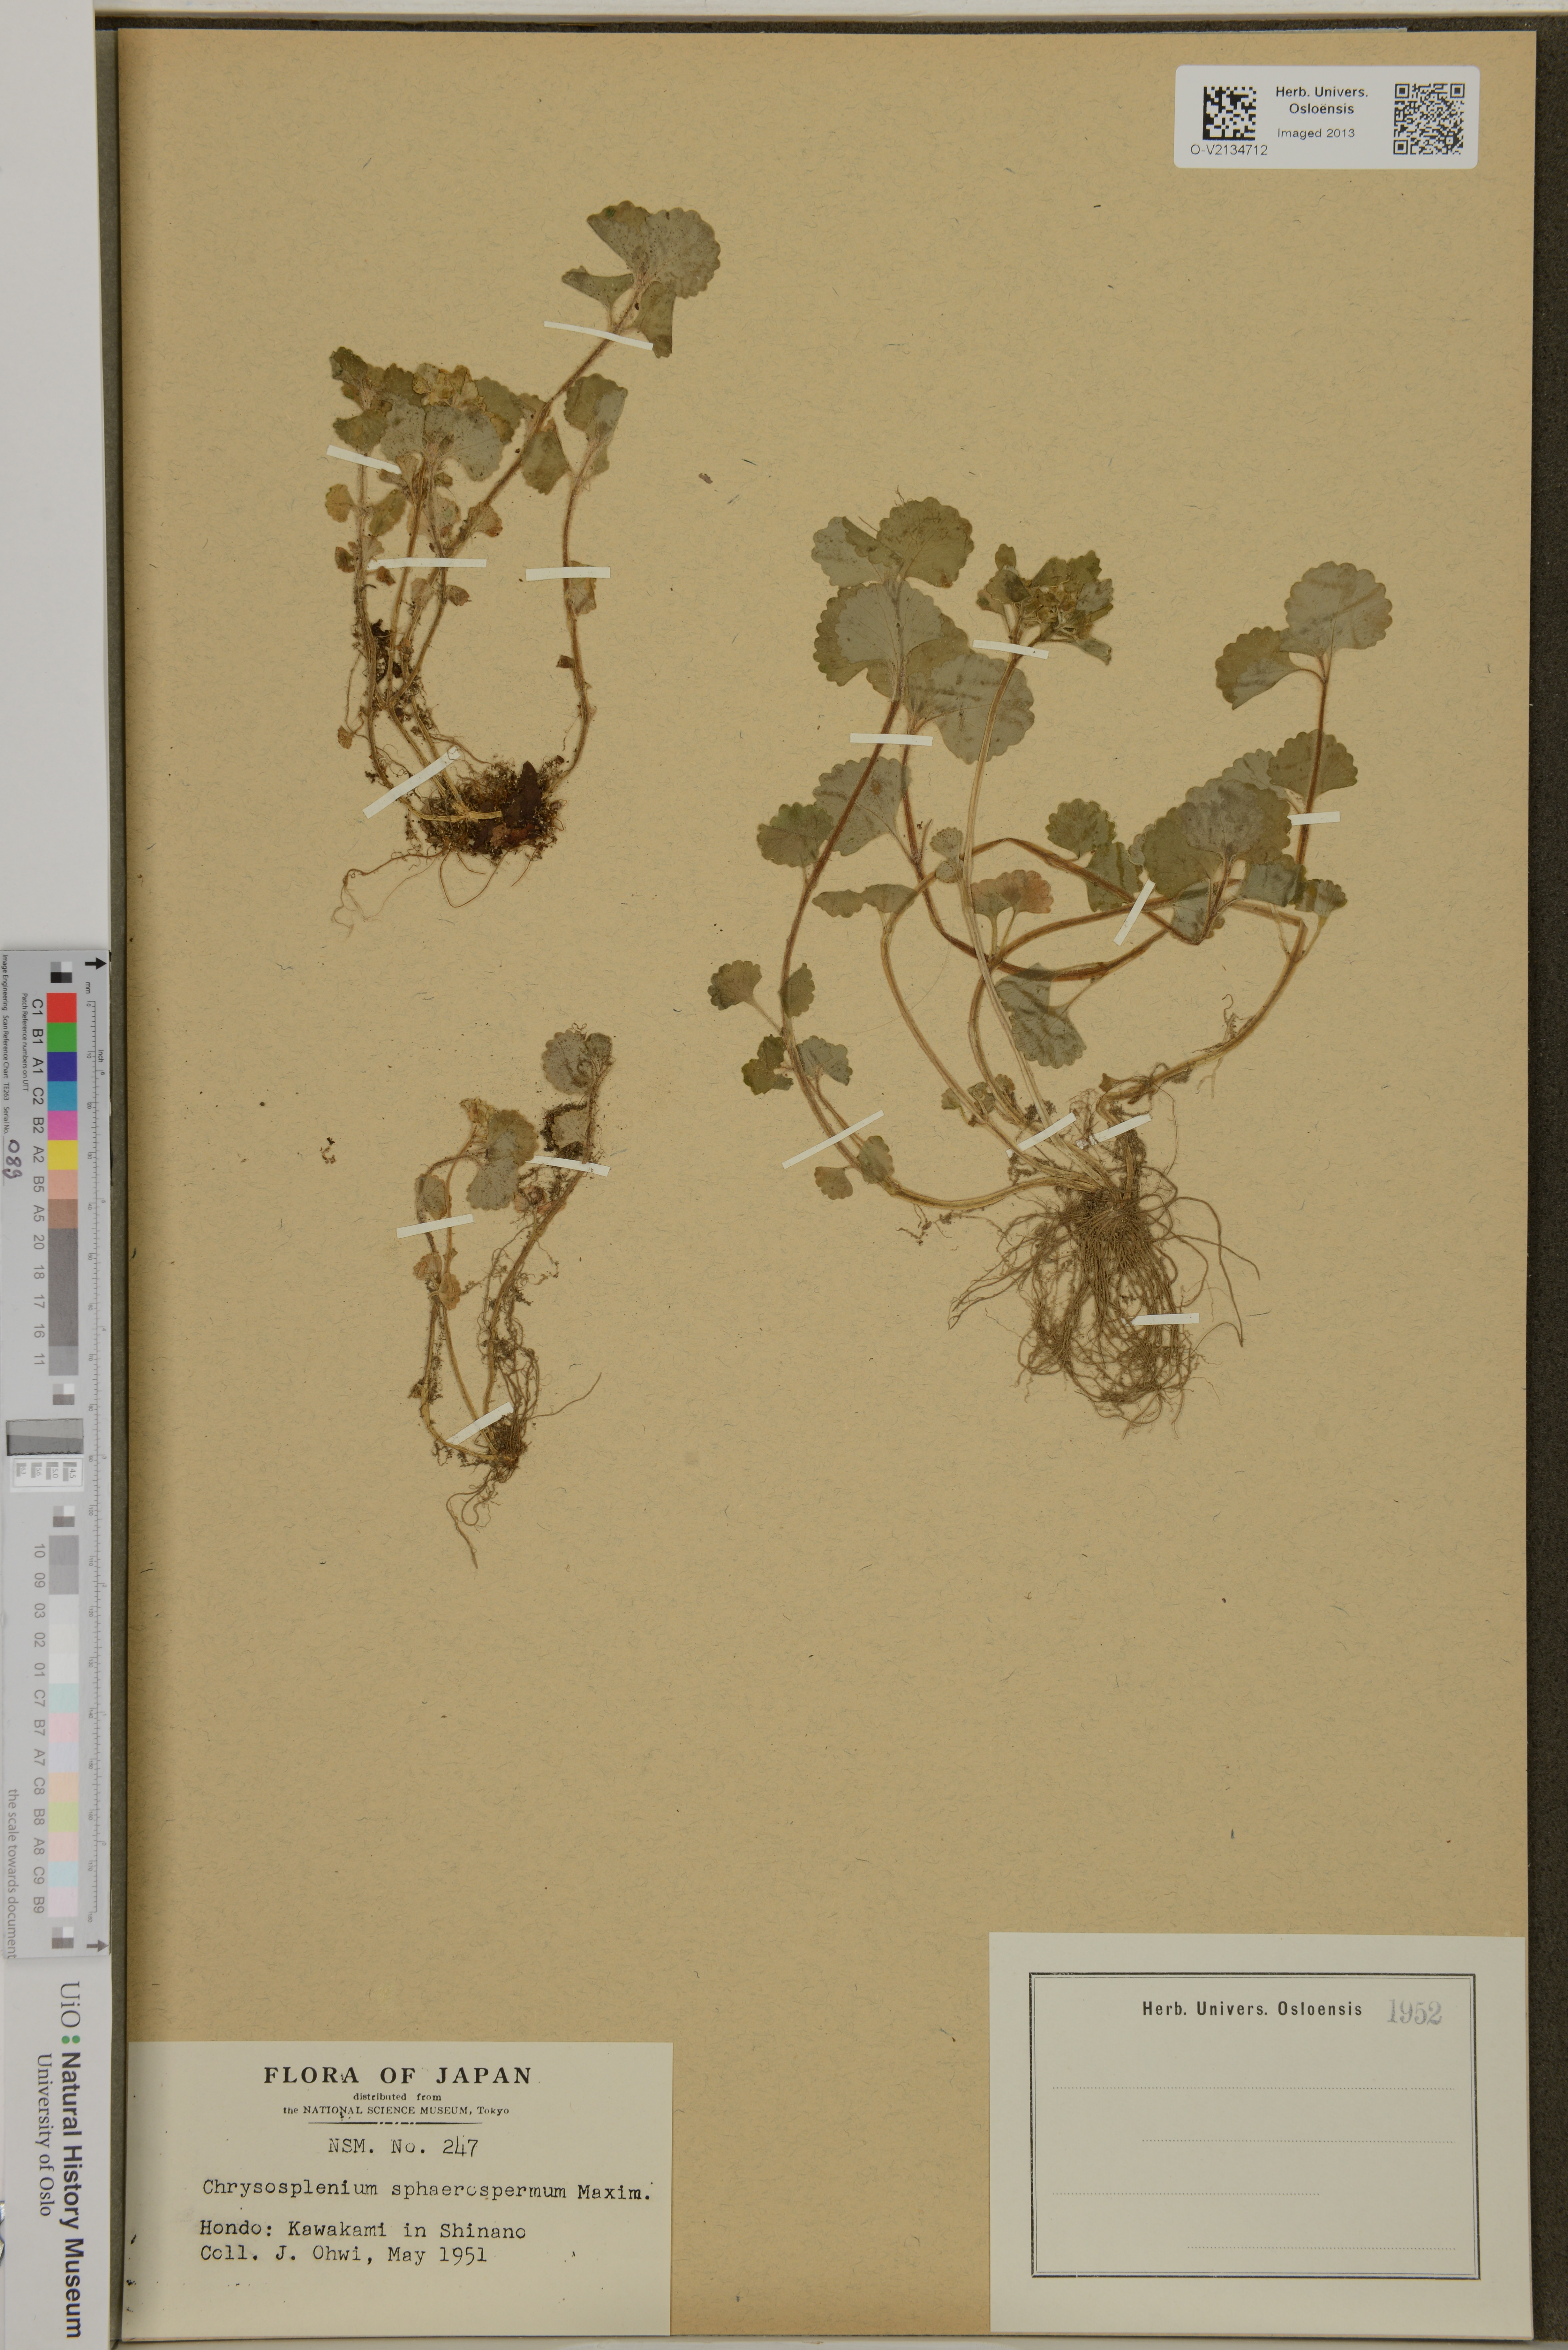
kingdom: Plantae
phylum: Tracheophyta
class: Magnoliopsida
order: Saxifragales
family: Saxifragaceae
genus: Chrysosplenium
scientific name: Chrysosplenium pilosum
